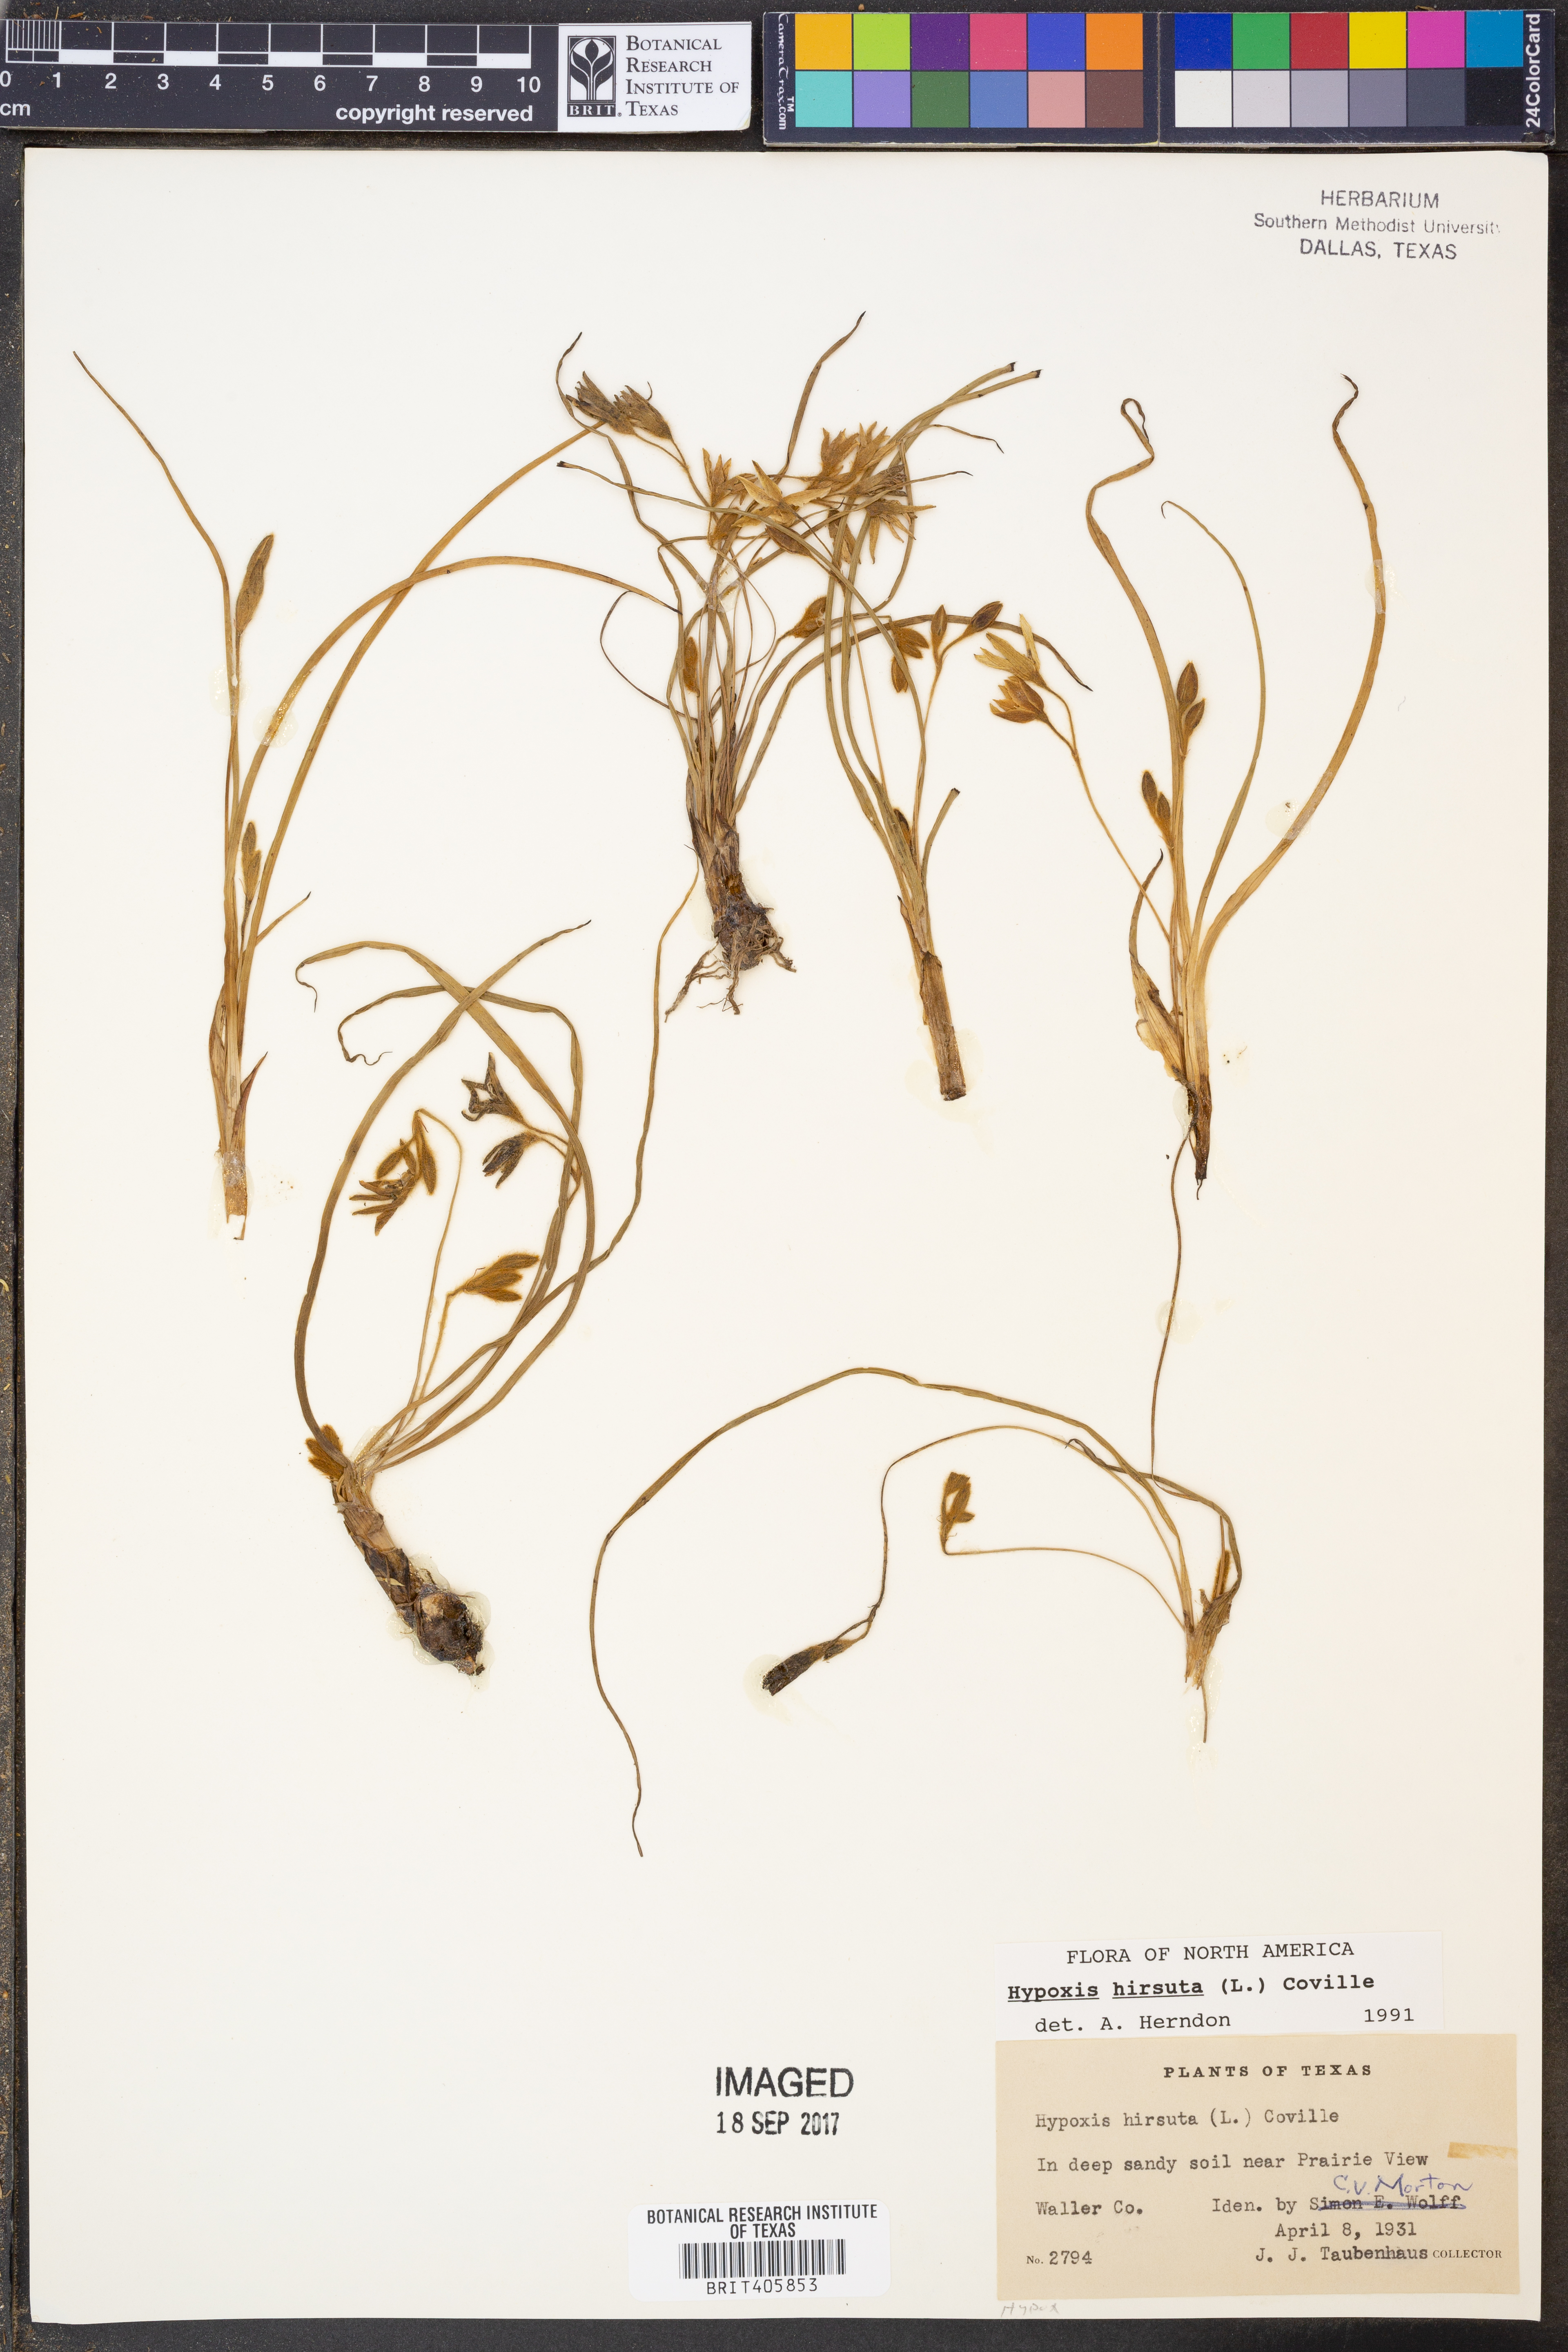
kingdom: Plantae
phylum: Tracheophyta
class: Liliopsida
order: Asparagales
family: Hypoxidaceae
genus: Hypoxis
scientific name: Hypoxis hirsuta
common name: Common goldstar
